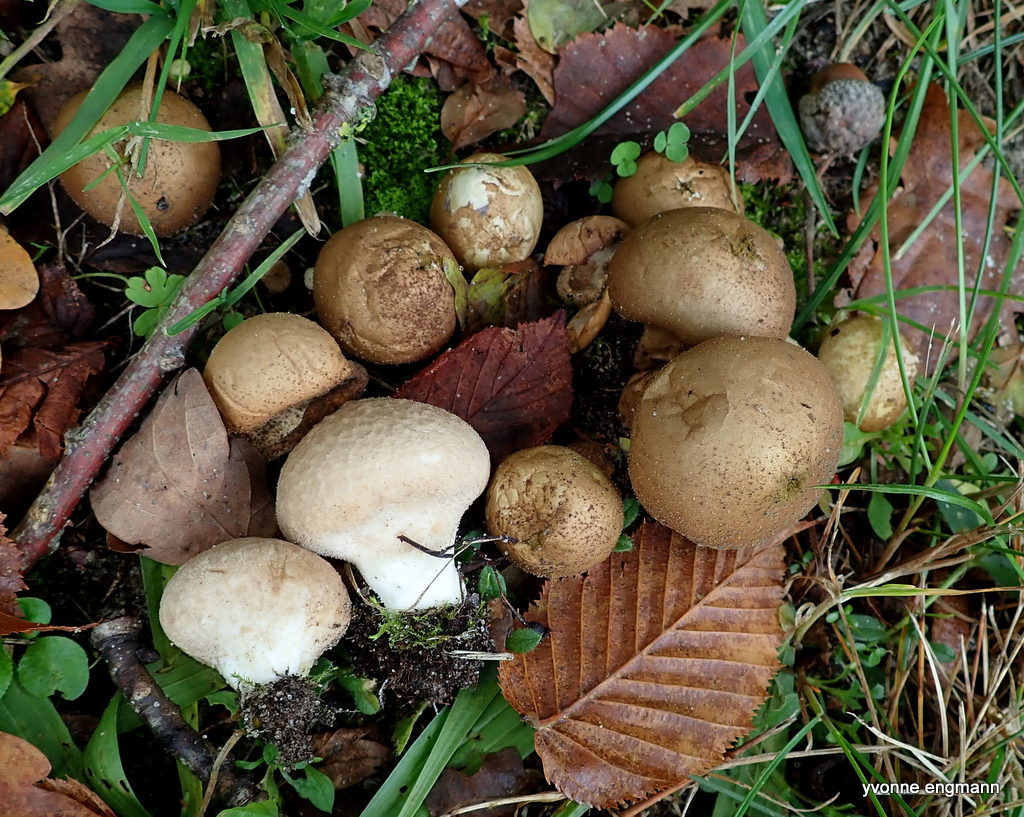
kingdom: Fungi
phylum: Basidiomycota
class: Agaricomycetes
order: Agaricales
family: Lycoperdaceae
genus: Apioperdon
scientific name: Apioperdon pyriforme
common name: pære-støvbold
